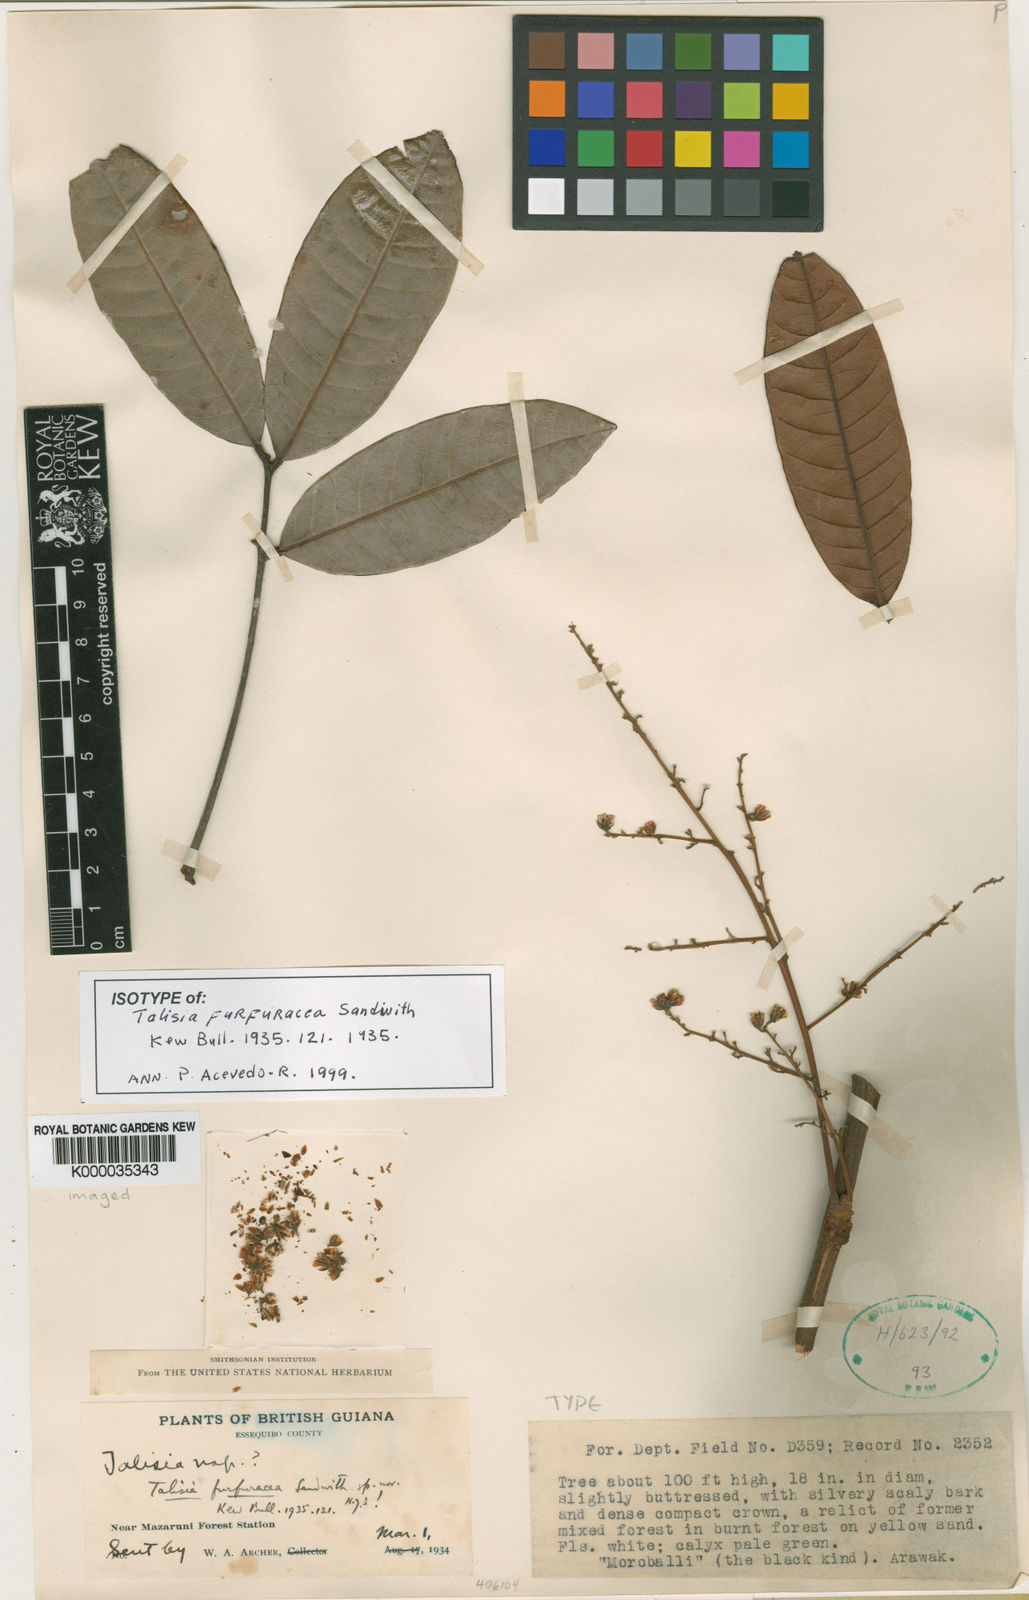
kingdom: Plantae
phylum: Tracheophyta
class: Magnoliopsida
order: Sapindales
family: Sapindaceae
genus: Talisia
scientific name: Talisia furfuracea
